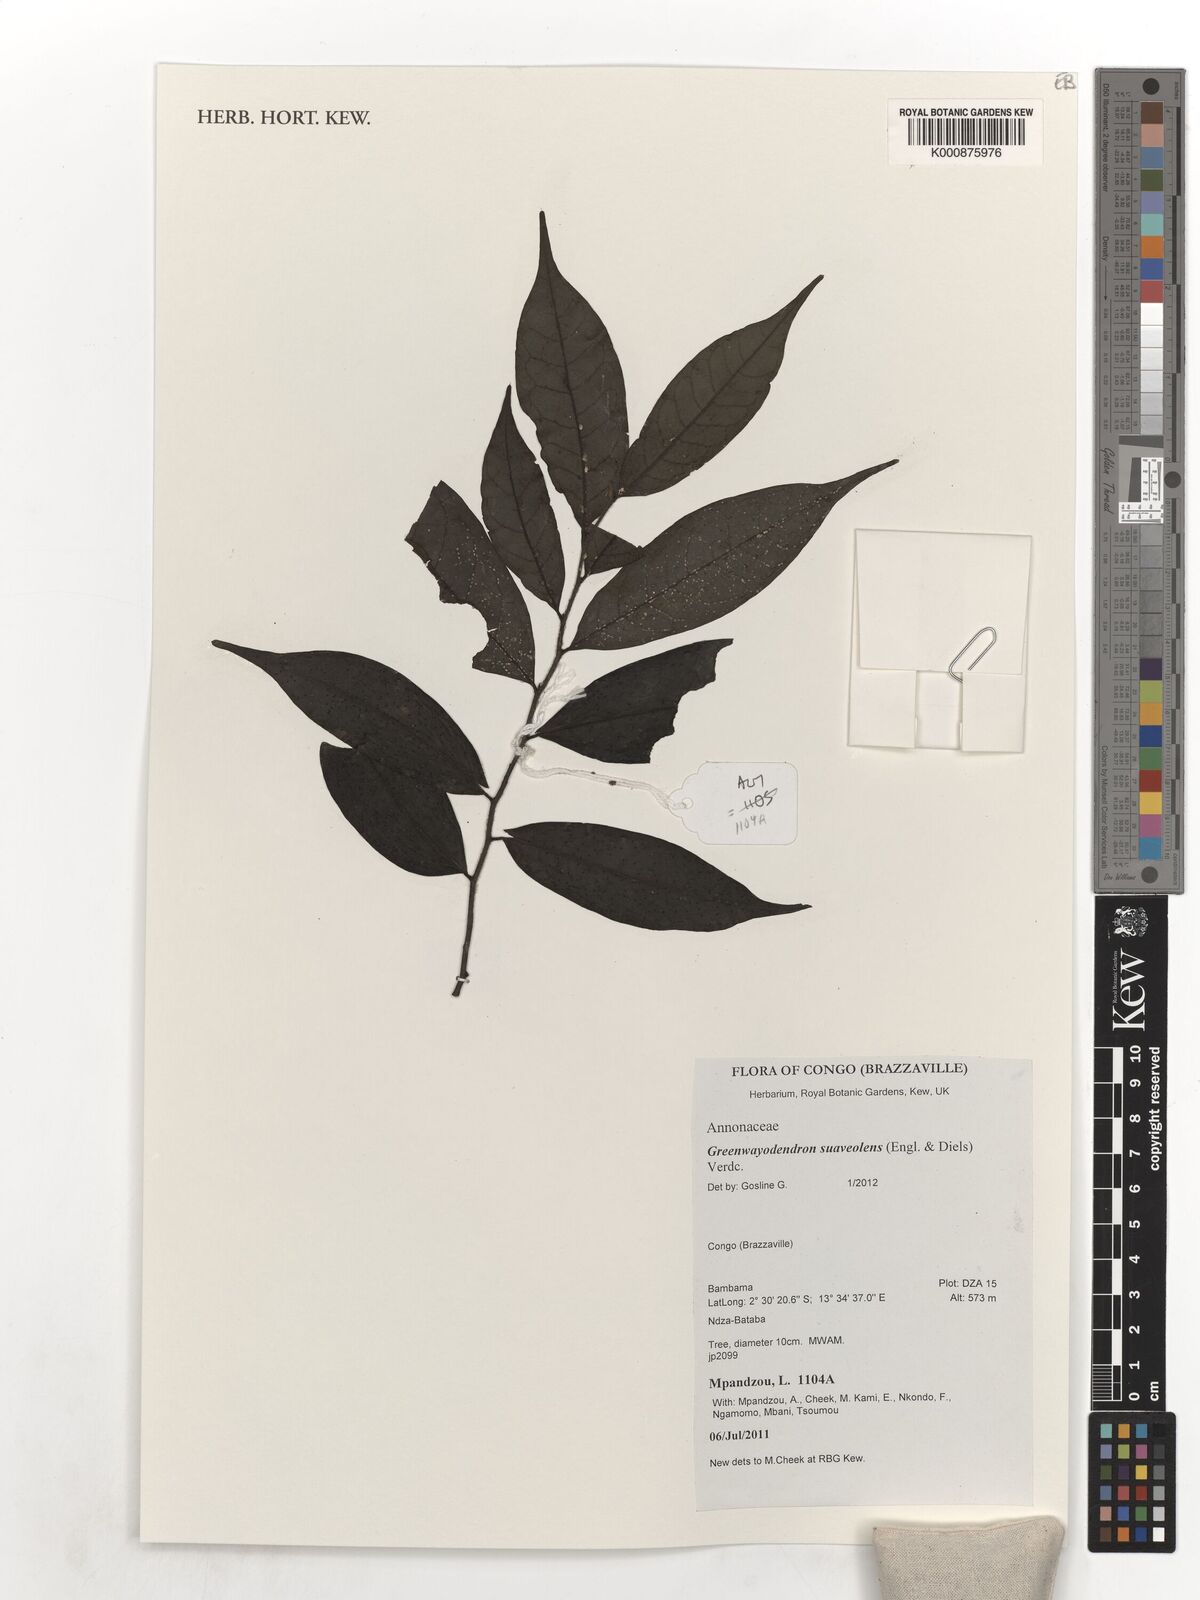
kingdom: Plantae
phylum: Tracheophyta
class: Magnoliopsida
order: Magnoliales
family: Annonaceae
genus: Greenwayodendron
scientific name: Greenwayodendron suaveolens
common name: Molinda
